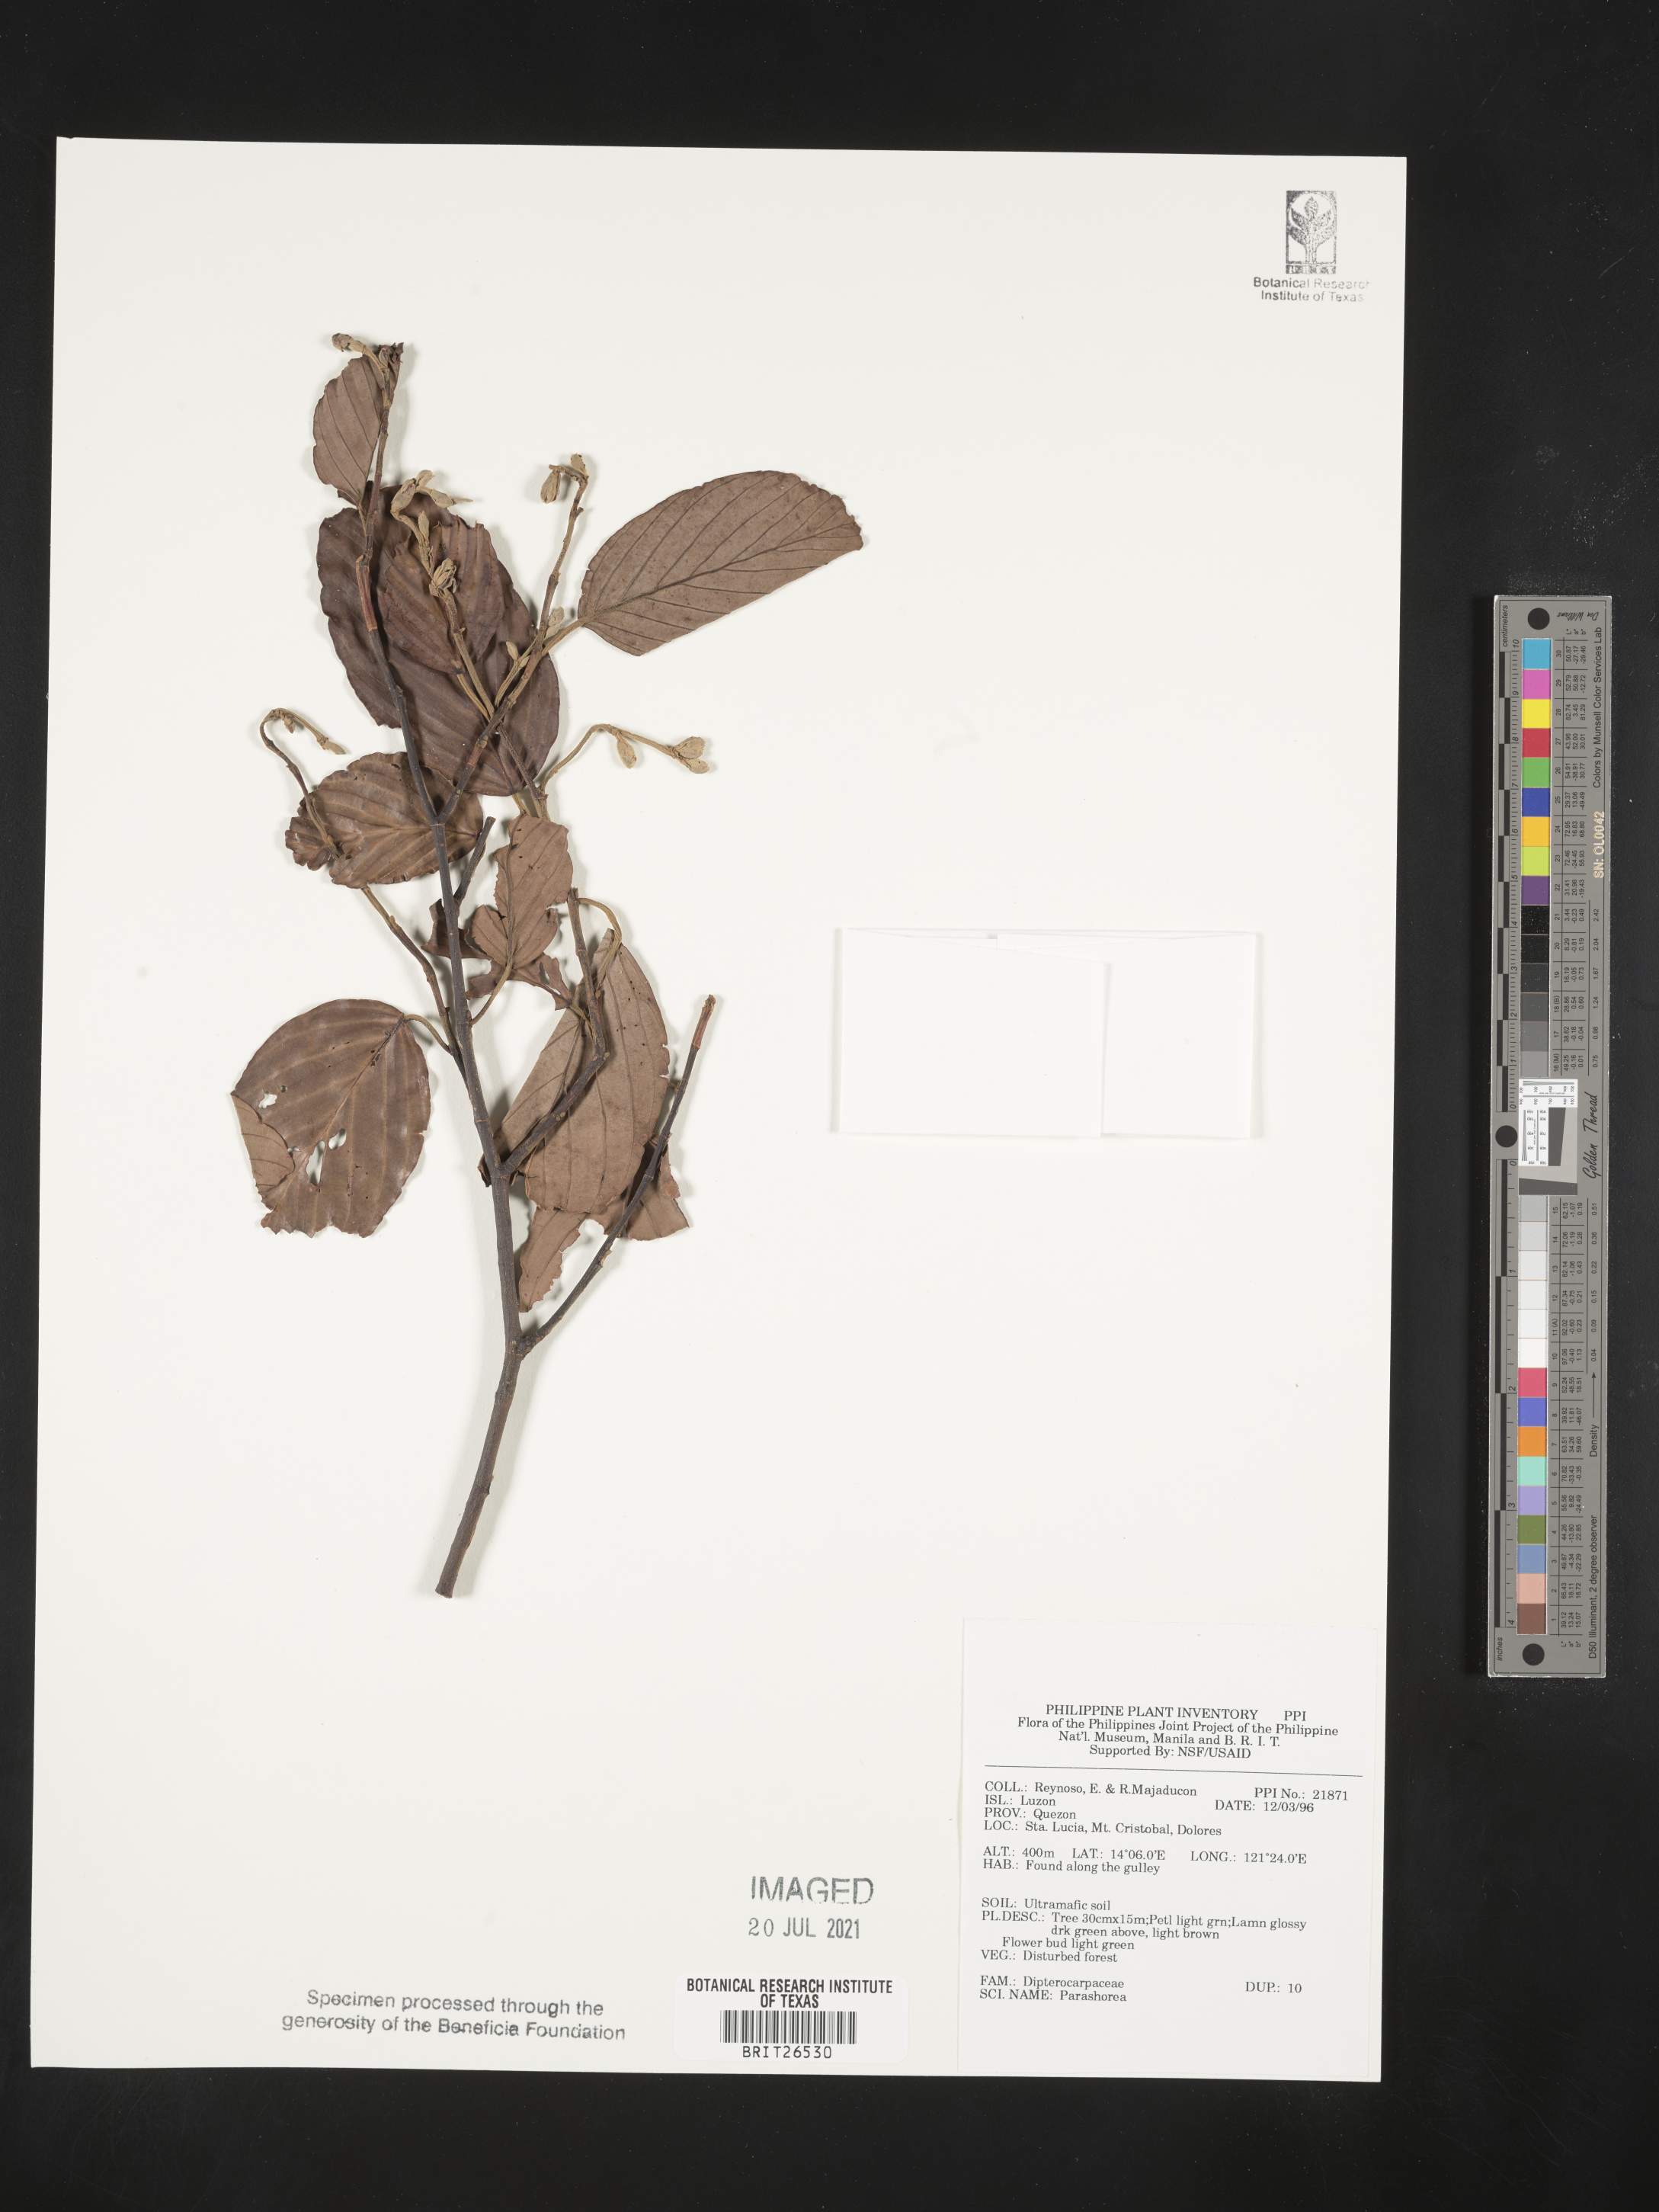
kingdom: Plantae
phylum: Tracheophyta
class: Magnoliopsida
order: Malvales
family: Dipterocarpaceae
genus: Parashorea
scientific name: Parashorea
